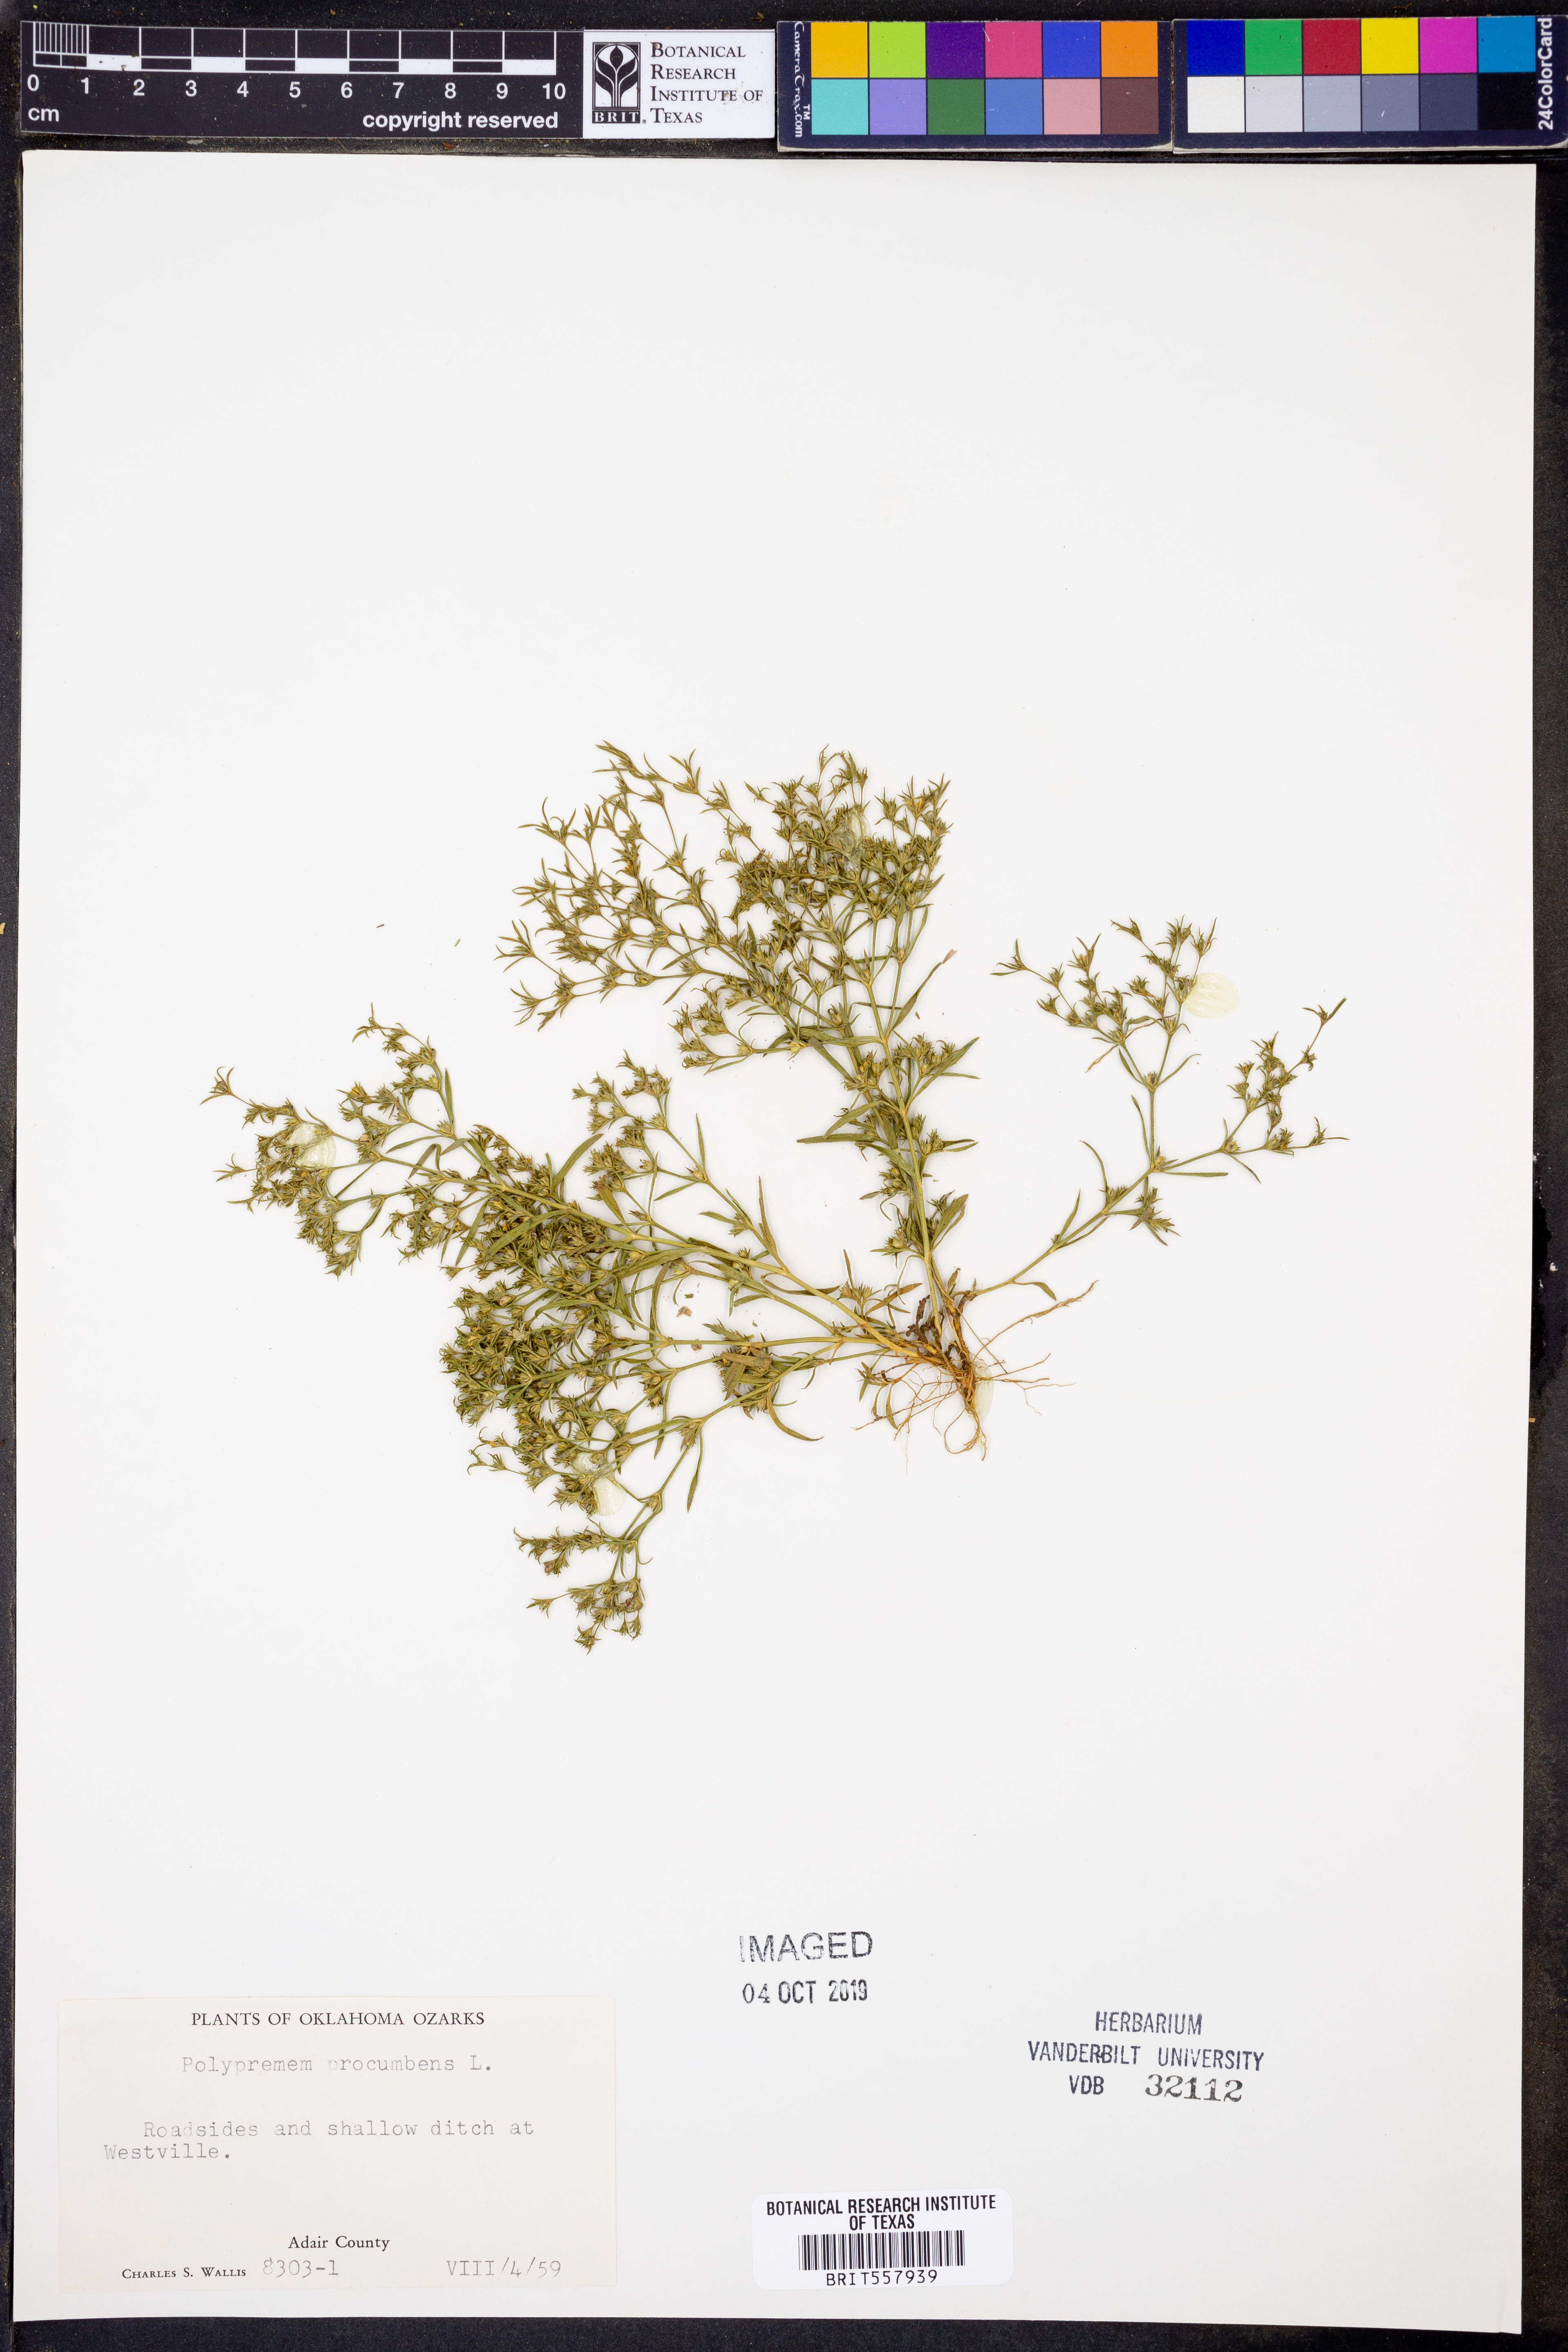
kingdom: Plantae
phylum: Tracheophyta
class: Magnoliopsida
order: Lamiales
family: Tetrachondraceae
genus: Polypremum
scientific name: Polypremum procumbens
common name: Juniper-leaf
